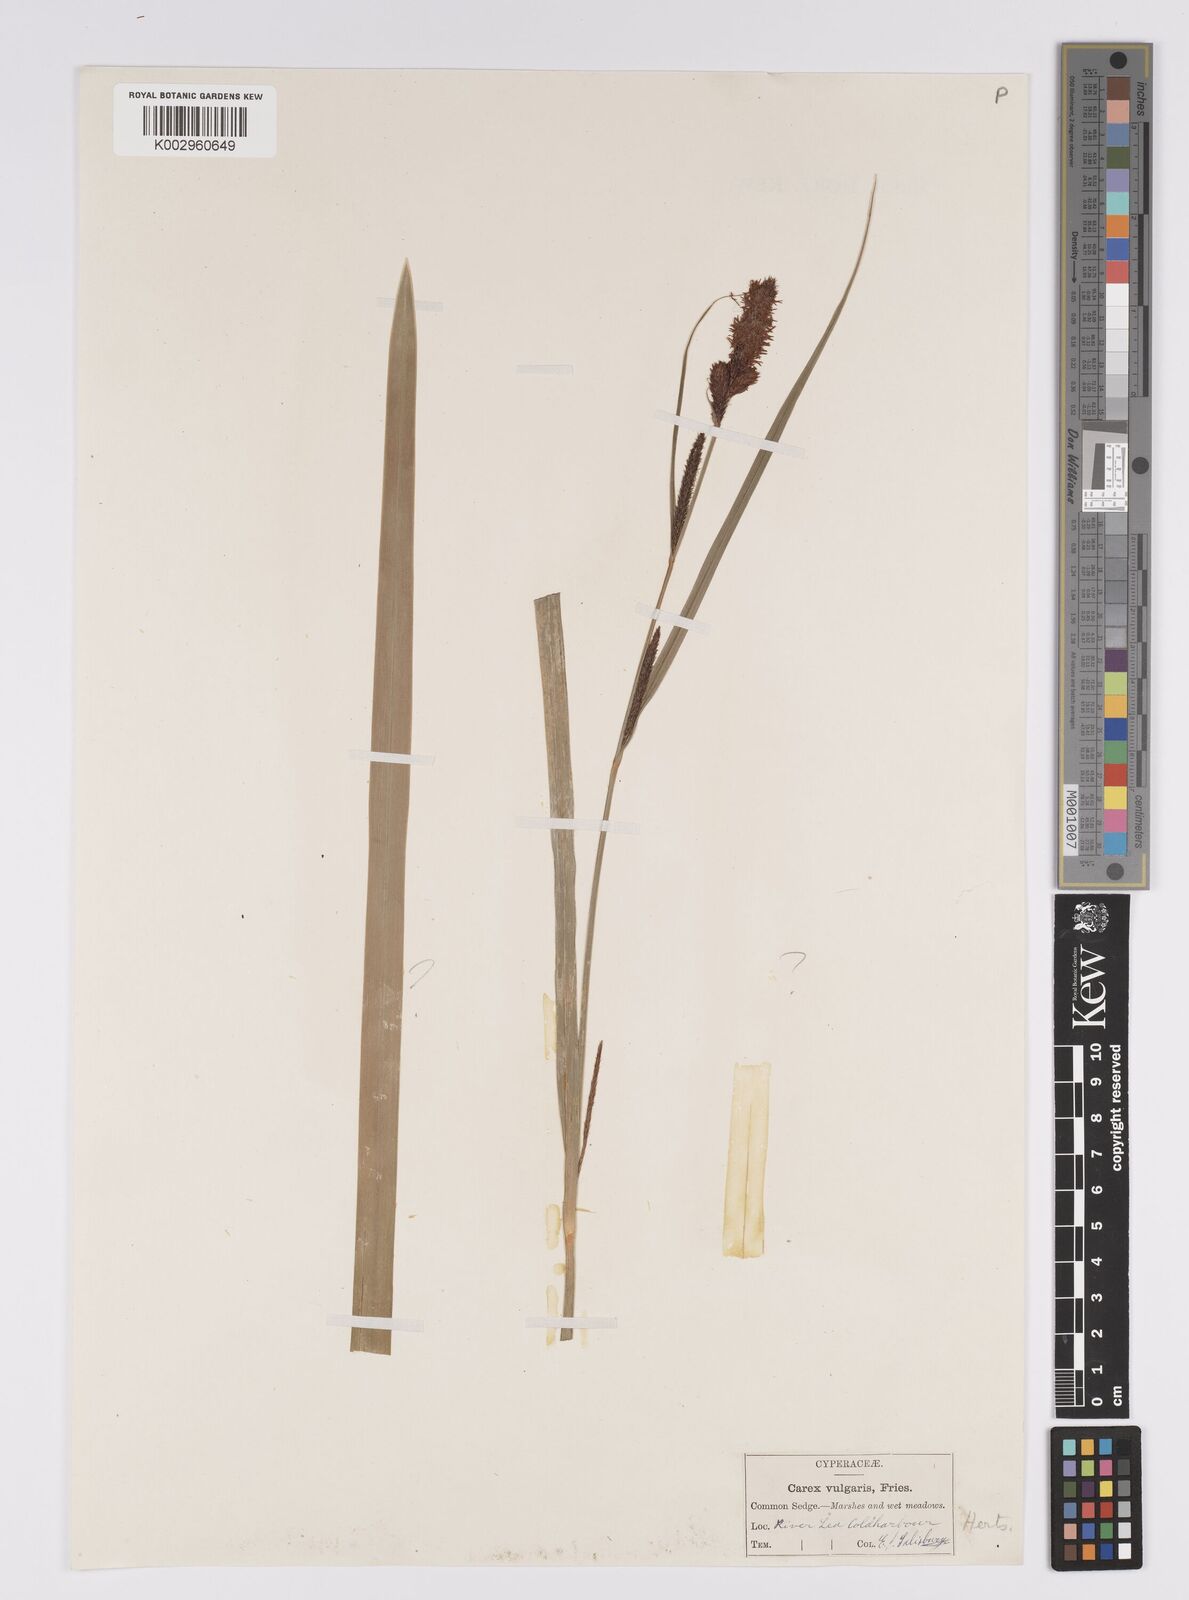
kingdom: Plantae
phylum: Tracheophyta
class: Liliopsida
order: Poales
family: Cyperaceae
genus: Carex
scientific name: Carex acutiformis
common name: Lesser pond-sedge
